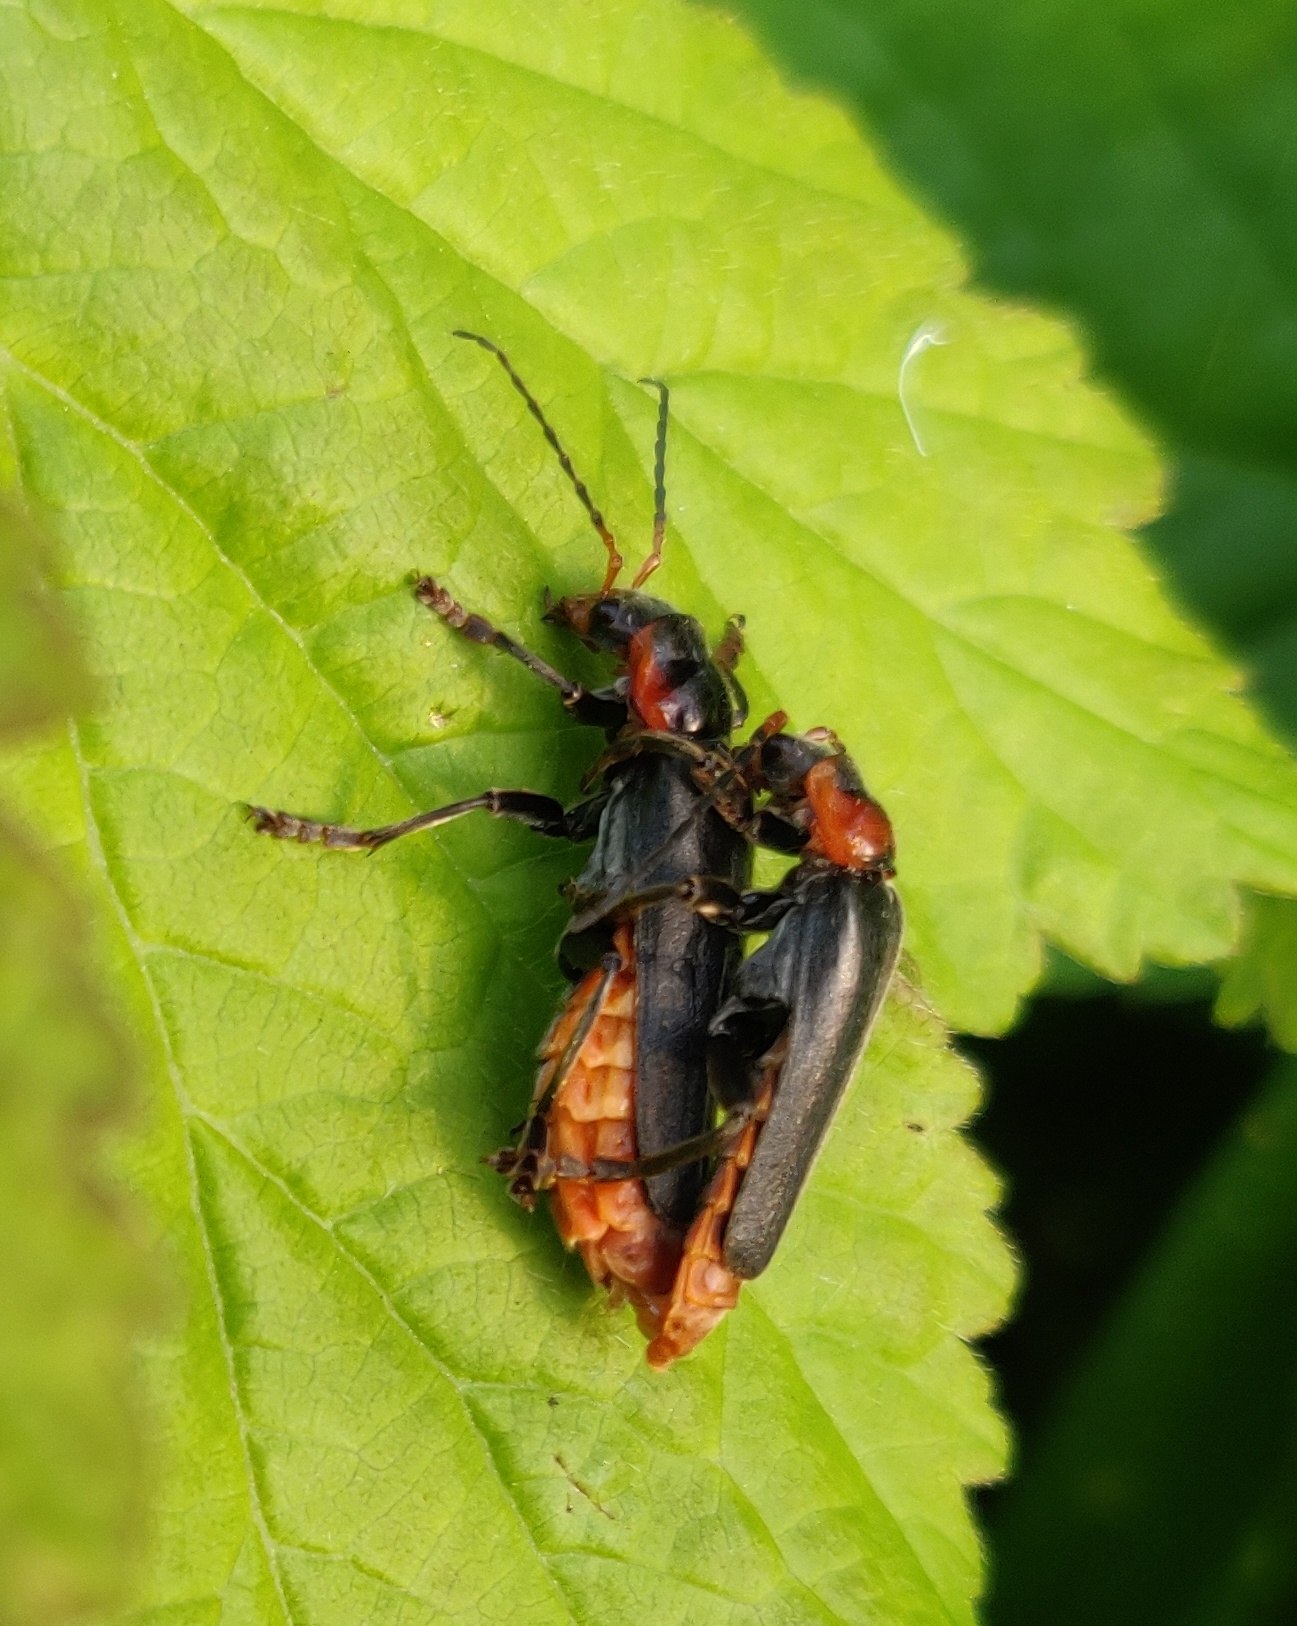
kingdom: Animalia
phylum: Arthropoda
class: Insecta
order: Coleoptera
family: Cantharidae
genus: Cantharis
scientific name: Cantharis fusca
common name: Stor blødvinge
